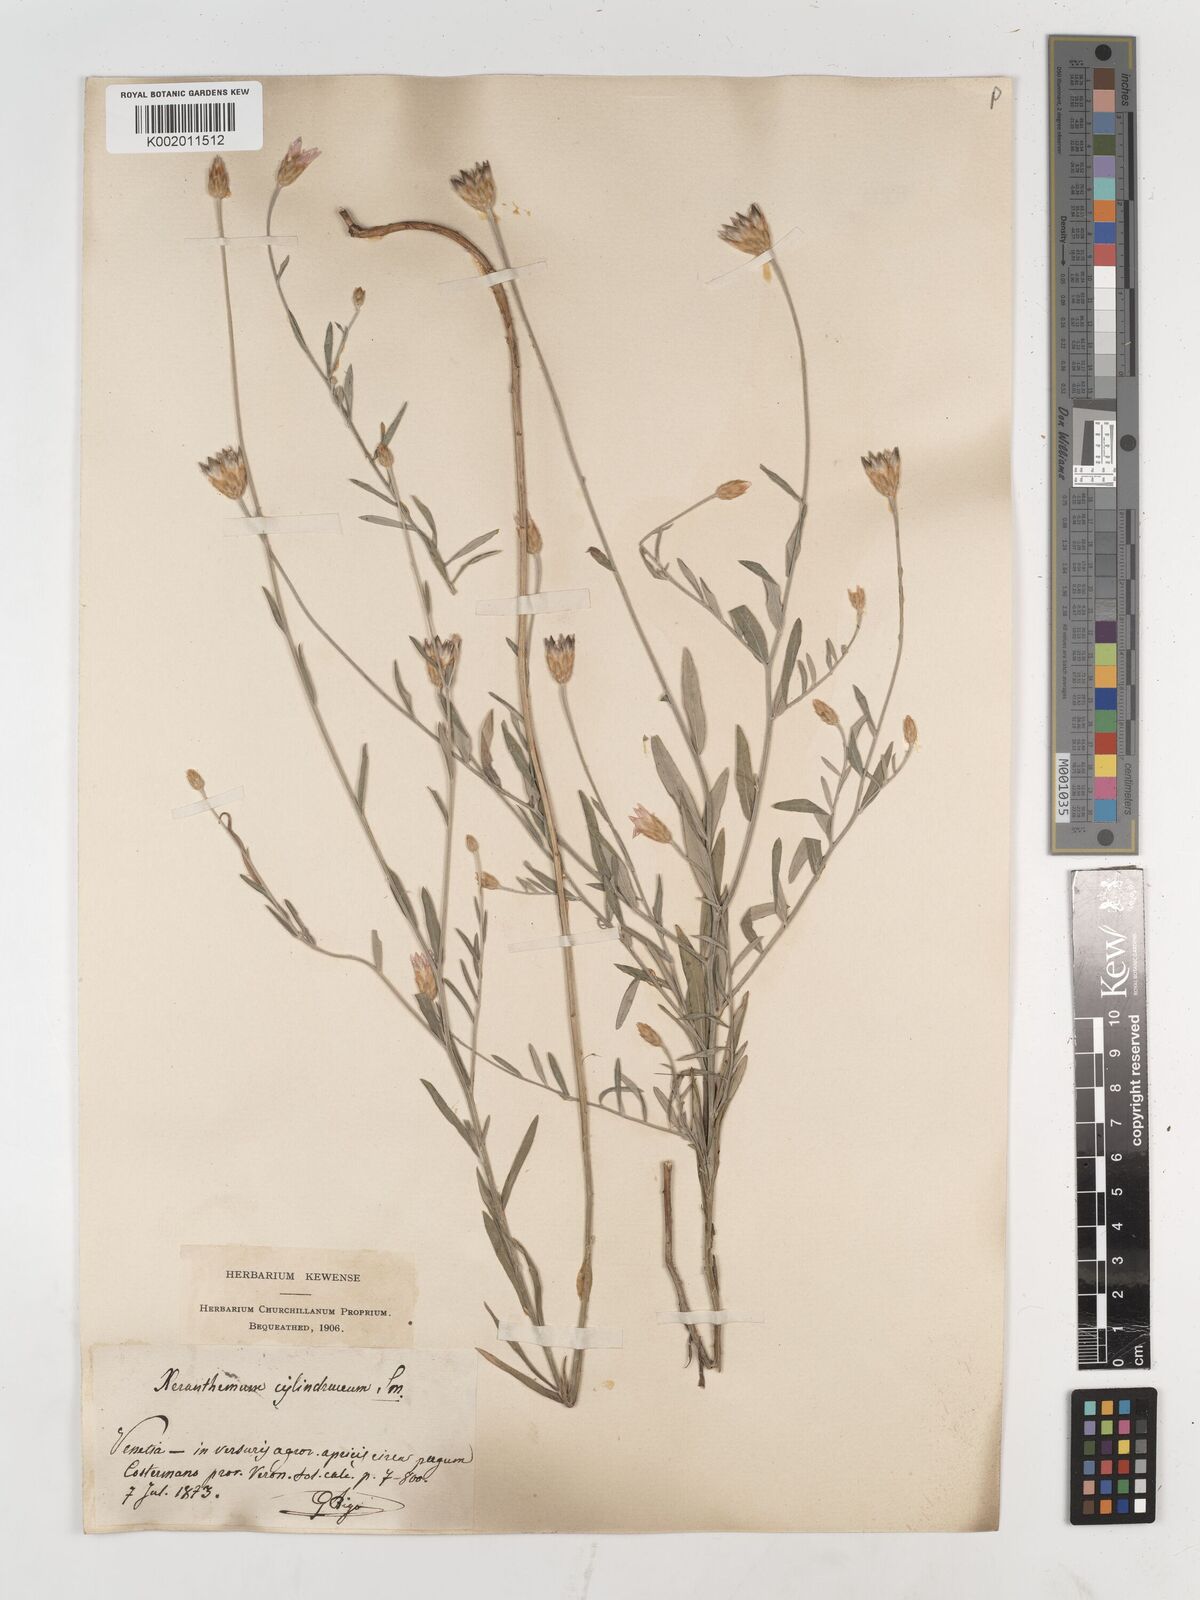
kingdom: Plantae
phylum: Tracheophyta
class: Magnoliopsida
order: Asterales
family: Asteraceae
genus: Xeranthemum
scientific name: Xeranthemum cylindraceum
